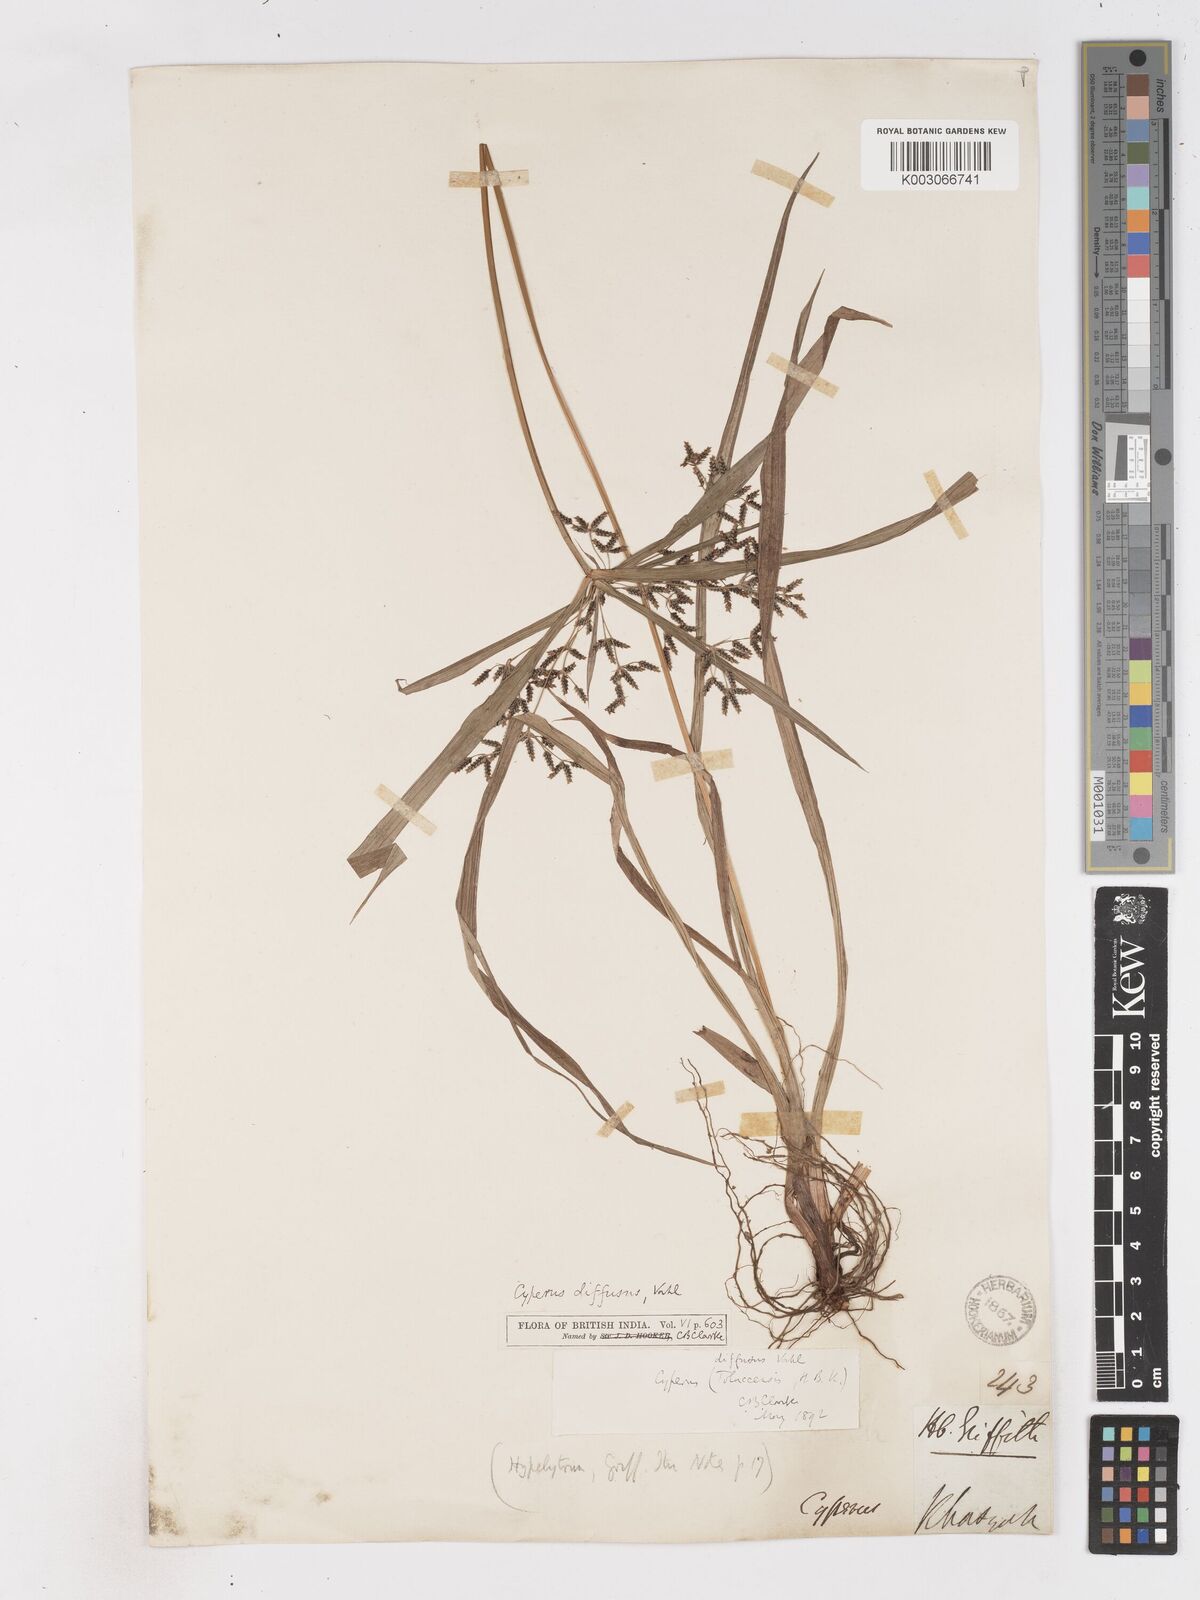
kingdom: Plantae
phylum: Tracheophyta
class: Liliopsida
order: Poales
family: Cyperaceae
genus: Cyperus
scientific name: Cyperus diffusus
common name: Dwarf umbrella grass
